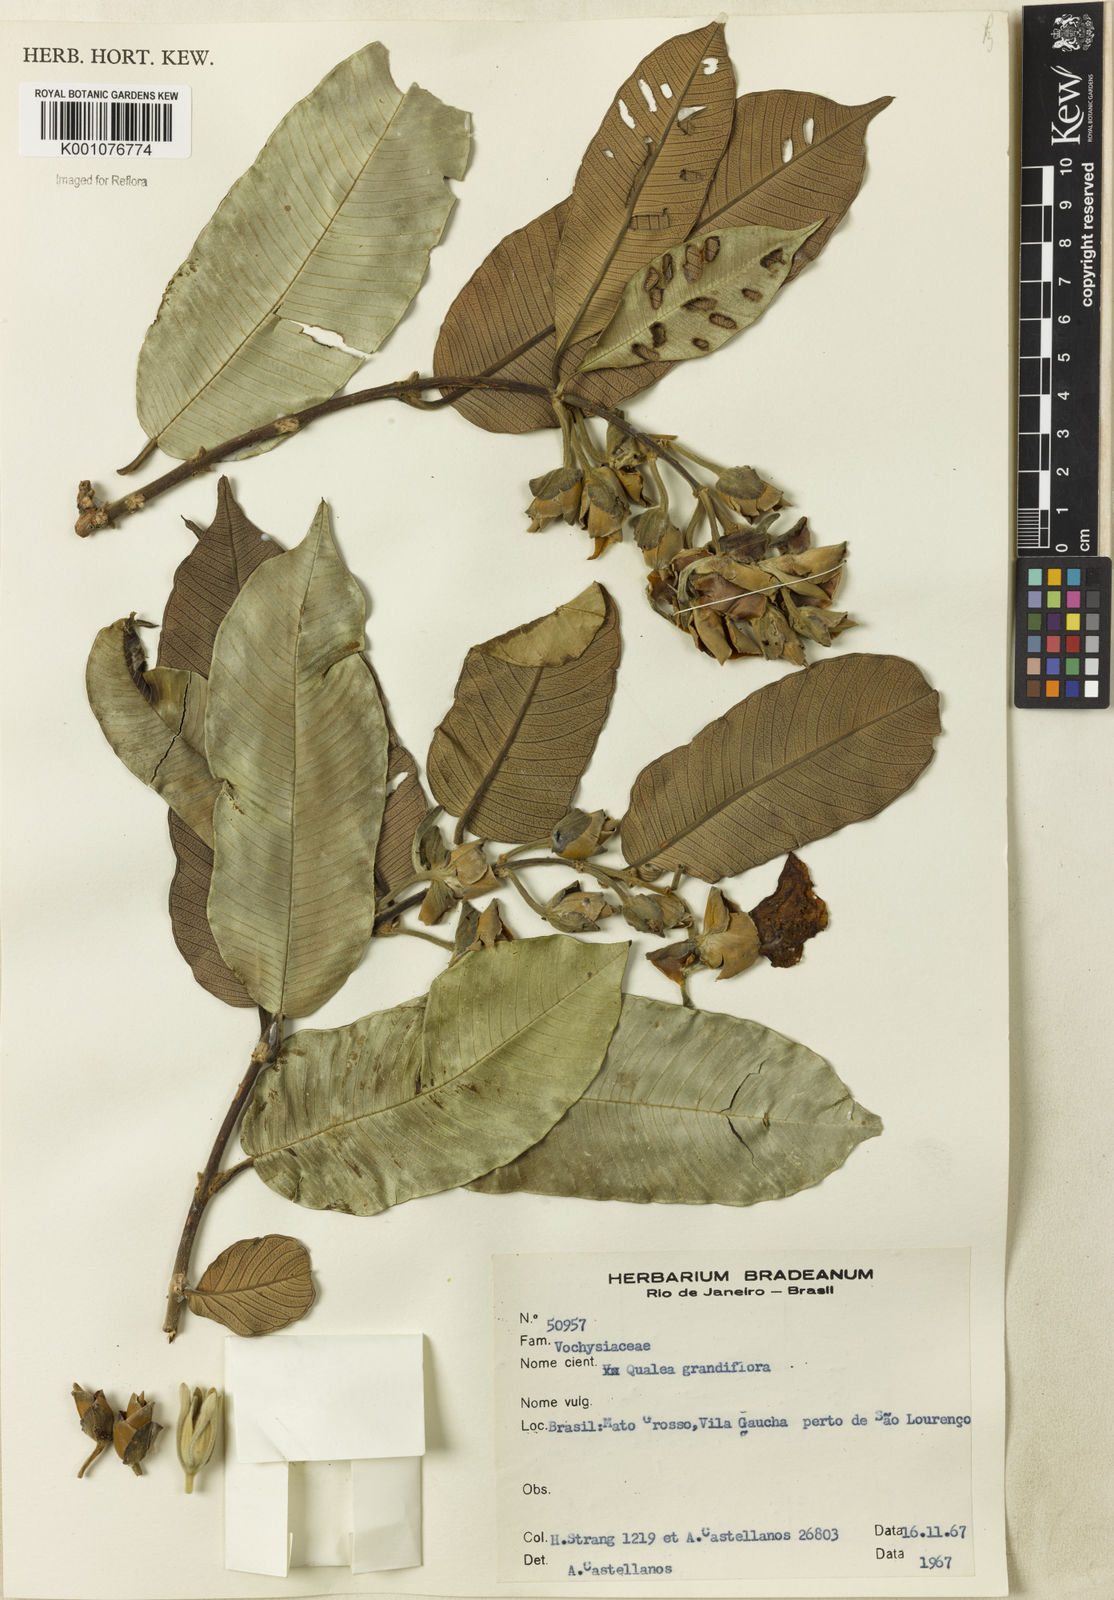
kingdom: Plantae
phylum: Tracheophyta
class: Magnoliopsida
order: Myrtales
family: Vochysiaceae
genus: Qualea
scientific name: Qualea grandiflora
